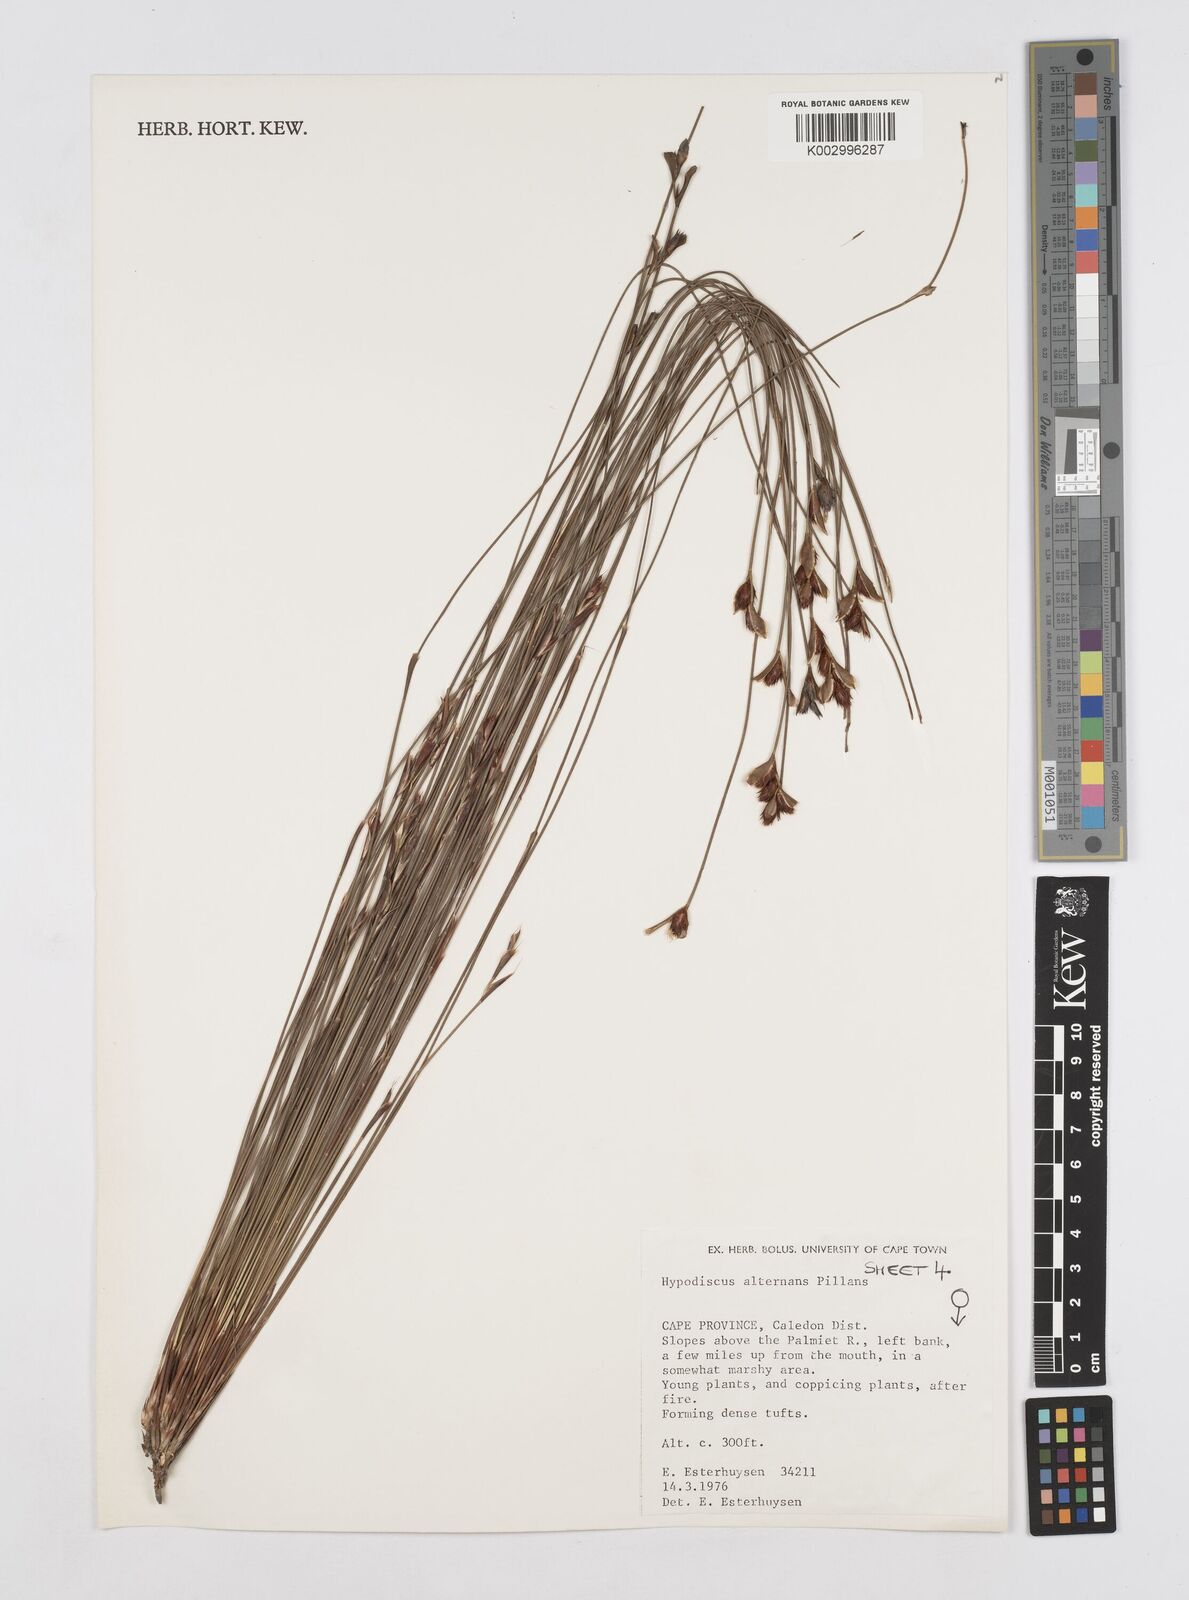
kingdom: Plantae
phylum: Tracheophyta
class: Liliopsida
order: Poales
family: Restionaceae
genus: Hypodiscus
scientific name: Hypodiscus alternans
